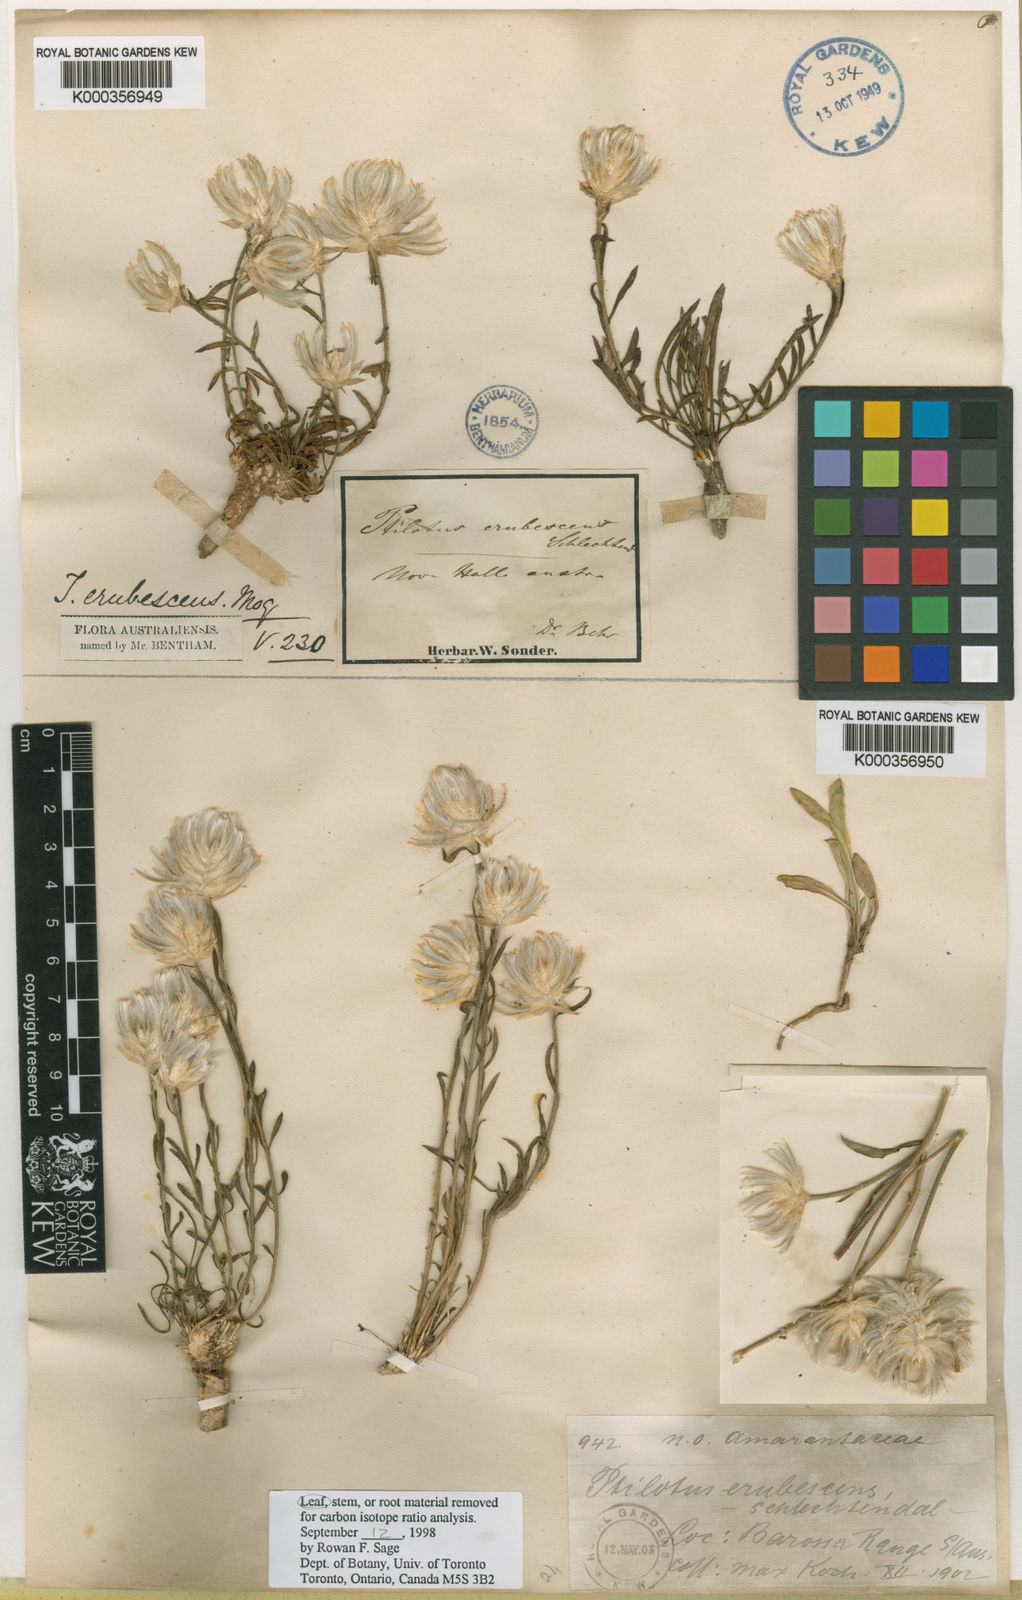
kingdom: Plantae
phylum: Tracheophyta
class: Magnoliopsida
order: Caryophyllales
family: Amaranthaceae
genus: Ptilotus
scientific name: Ptilotus erubescens
